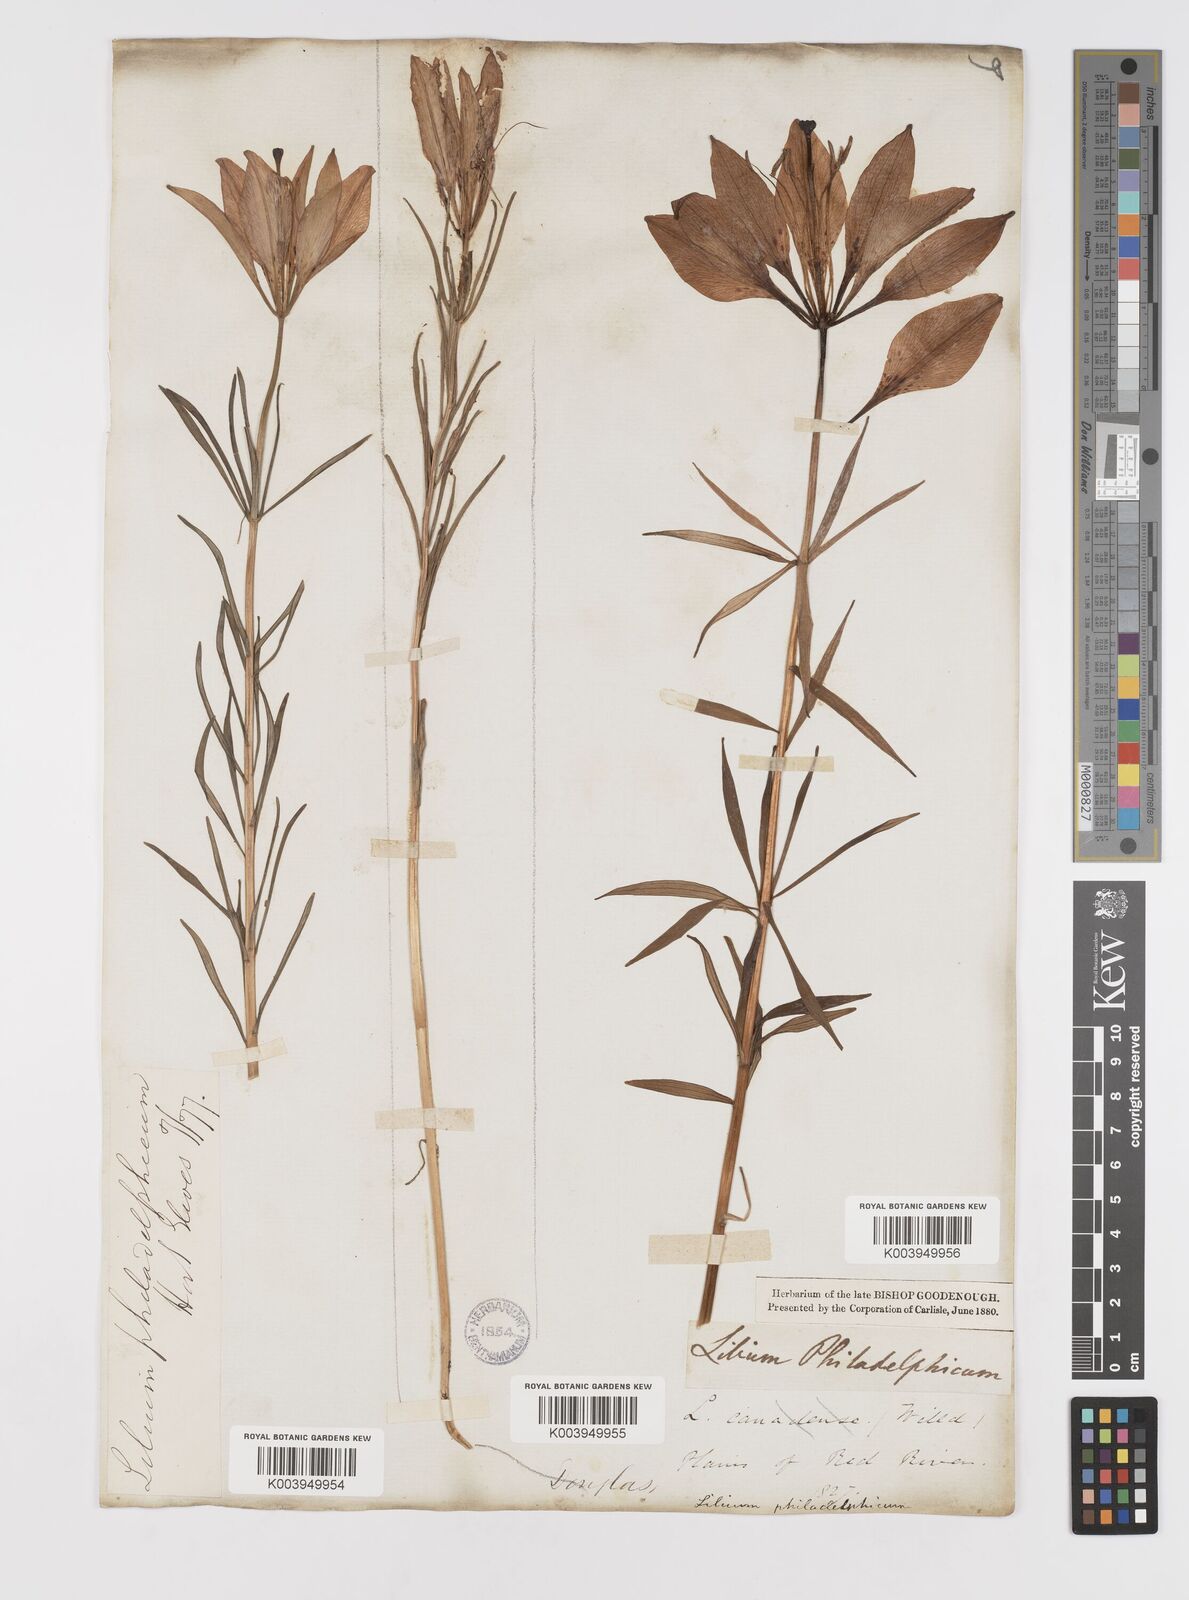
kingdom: Plantae
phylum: Tracheophyta
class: Liliopsida
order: Liliales
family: Liliaceae
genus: Lilium
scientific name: Lilium philadelphicum
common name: Red lily
